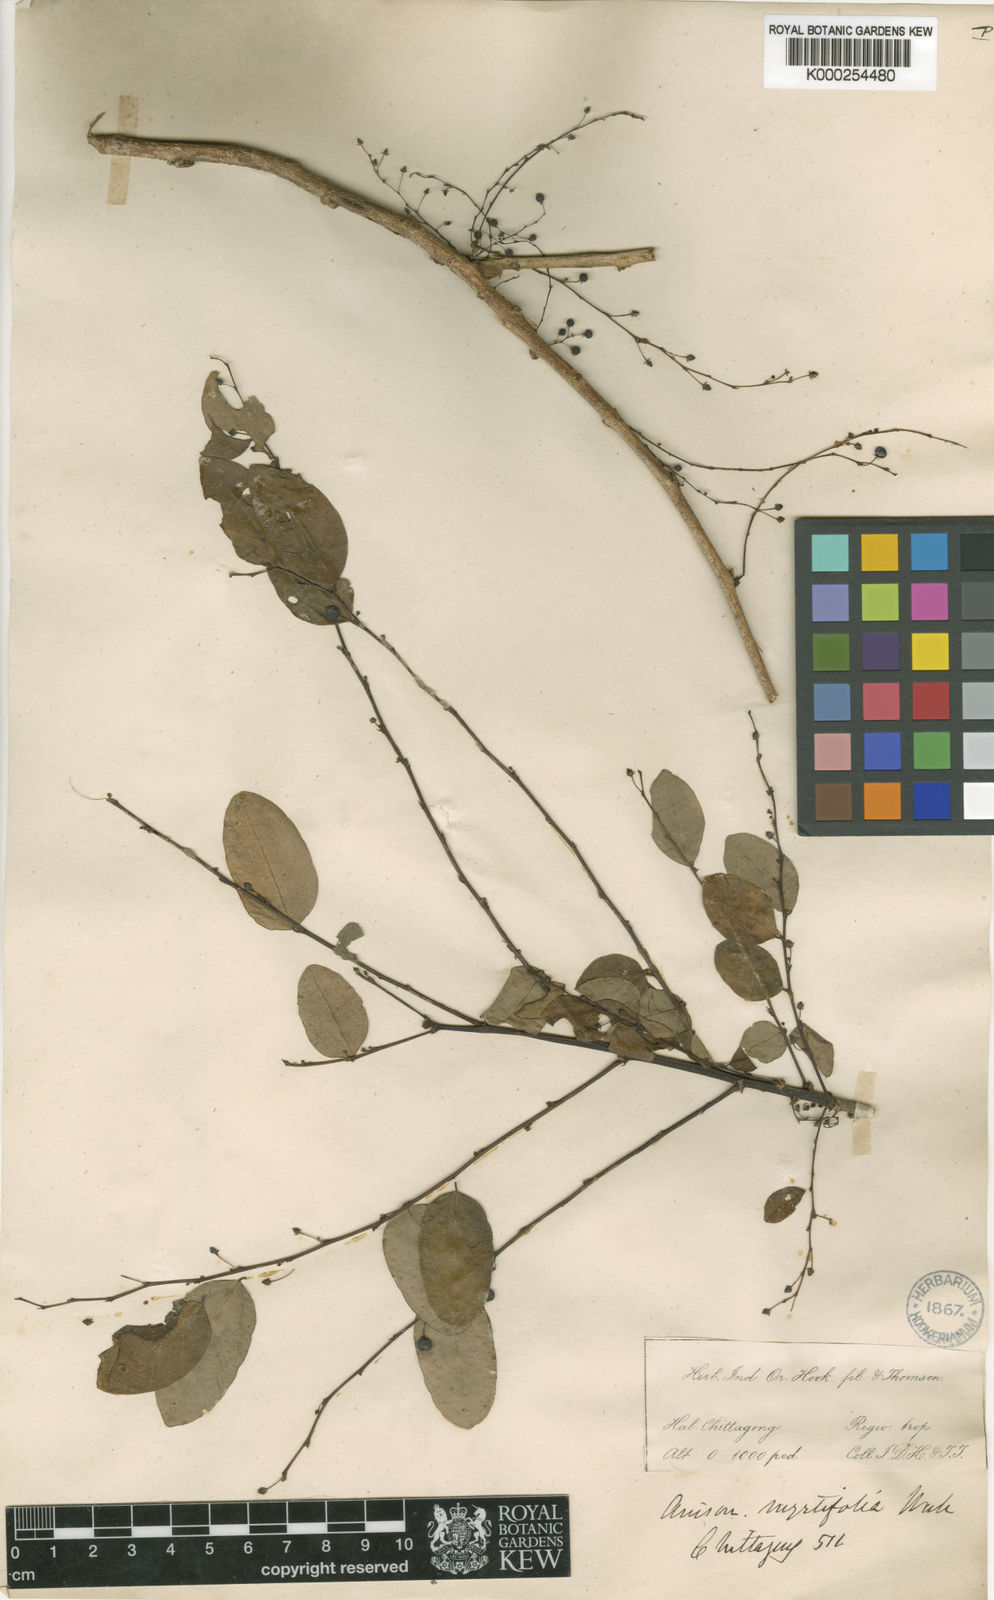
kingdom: Plantae
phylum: Tracheophyta
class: Magnoliopsida
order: Malpighiales
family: Phyllanthaceae
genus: Phyllanthus
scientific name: Phyllanthus reticulatus
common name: Potato bush
